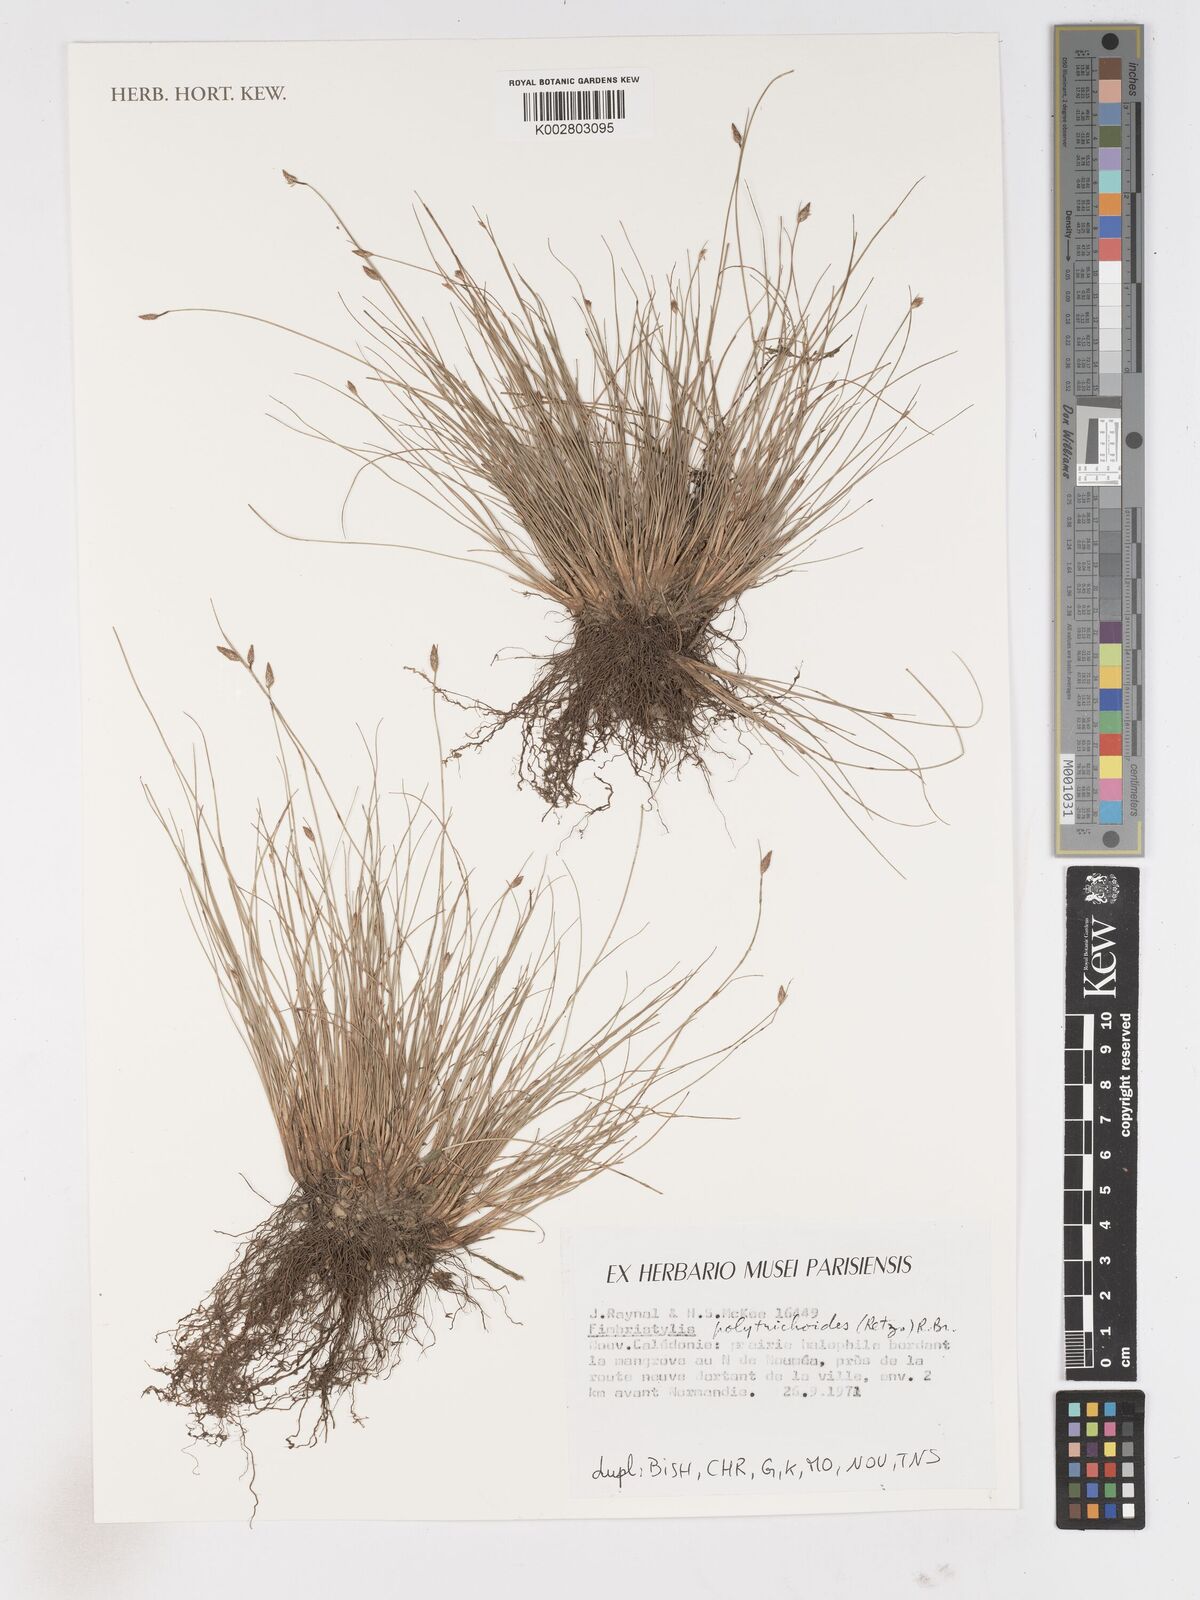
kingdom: Plantae
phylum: Tracheophyta
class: Liliopsida
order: Poales
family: Cyperaceae
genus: Fimbristylis
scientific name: Fimbristylis ferruginea
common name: West indian fimbry
